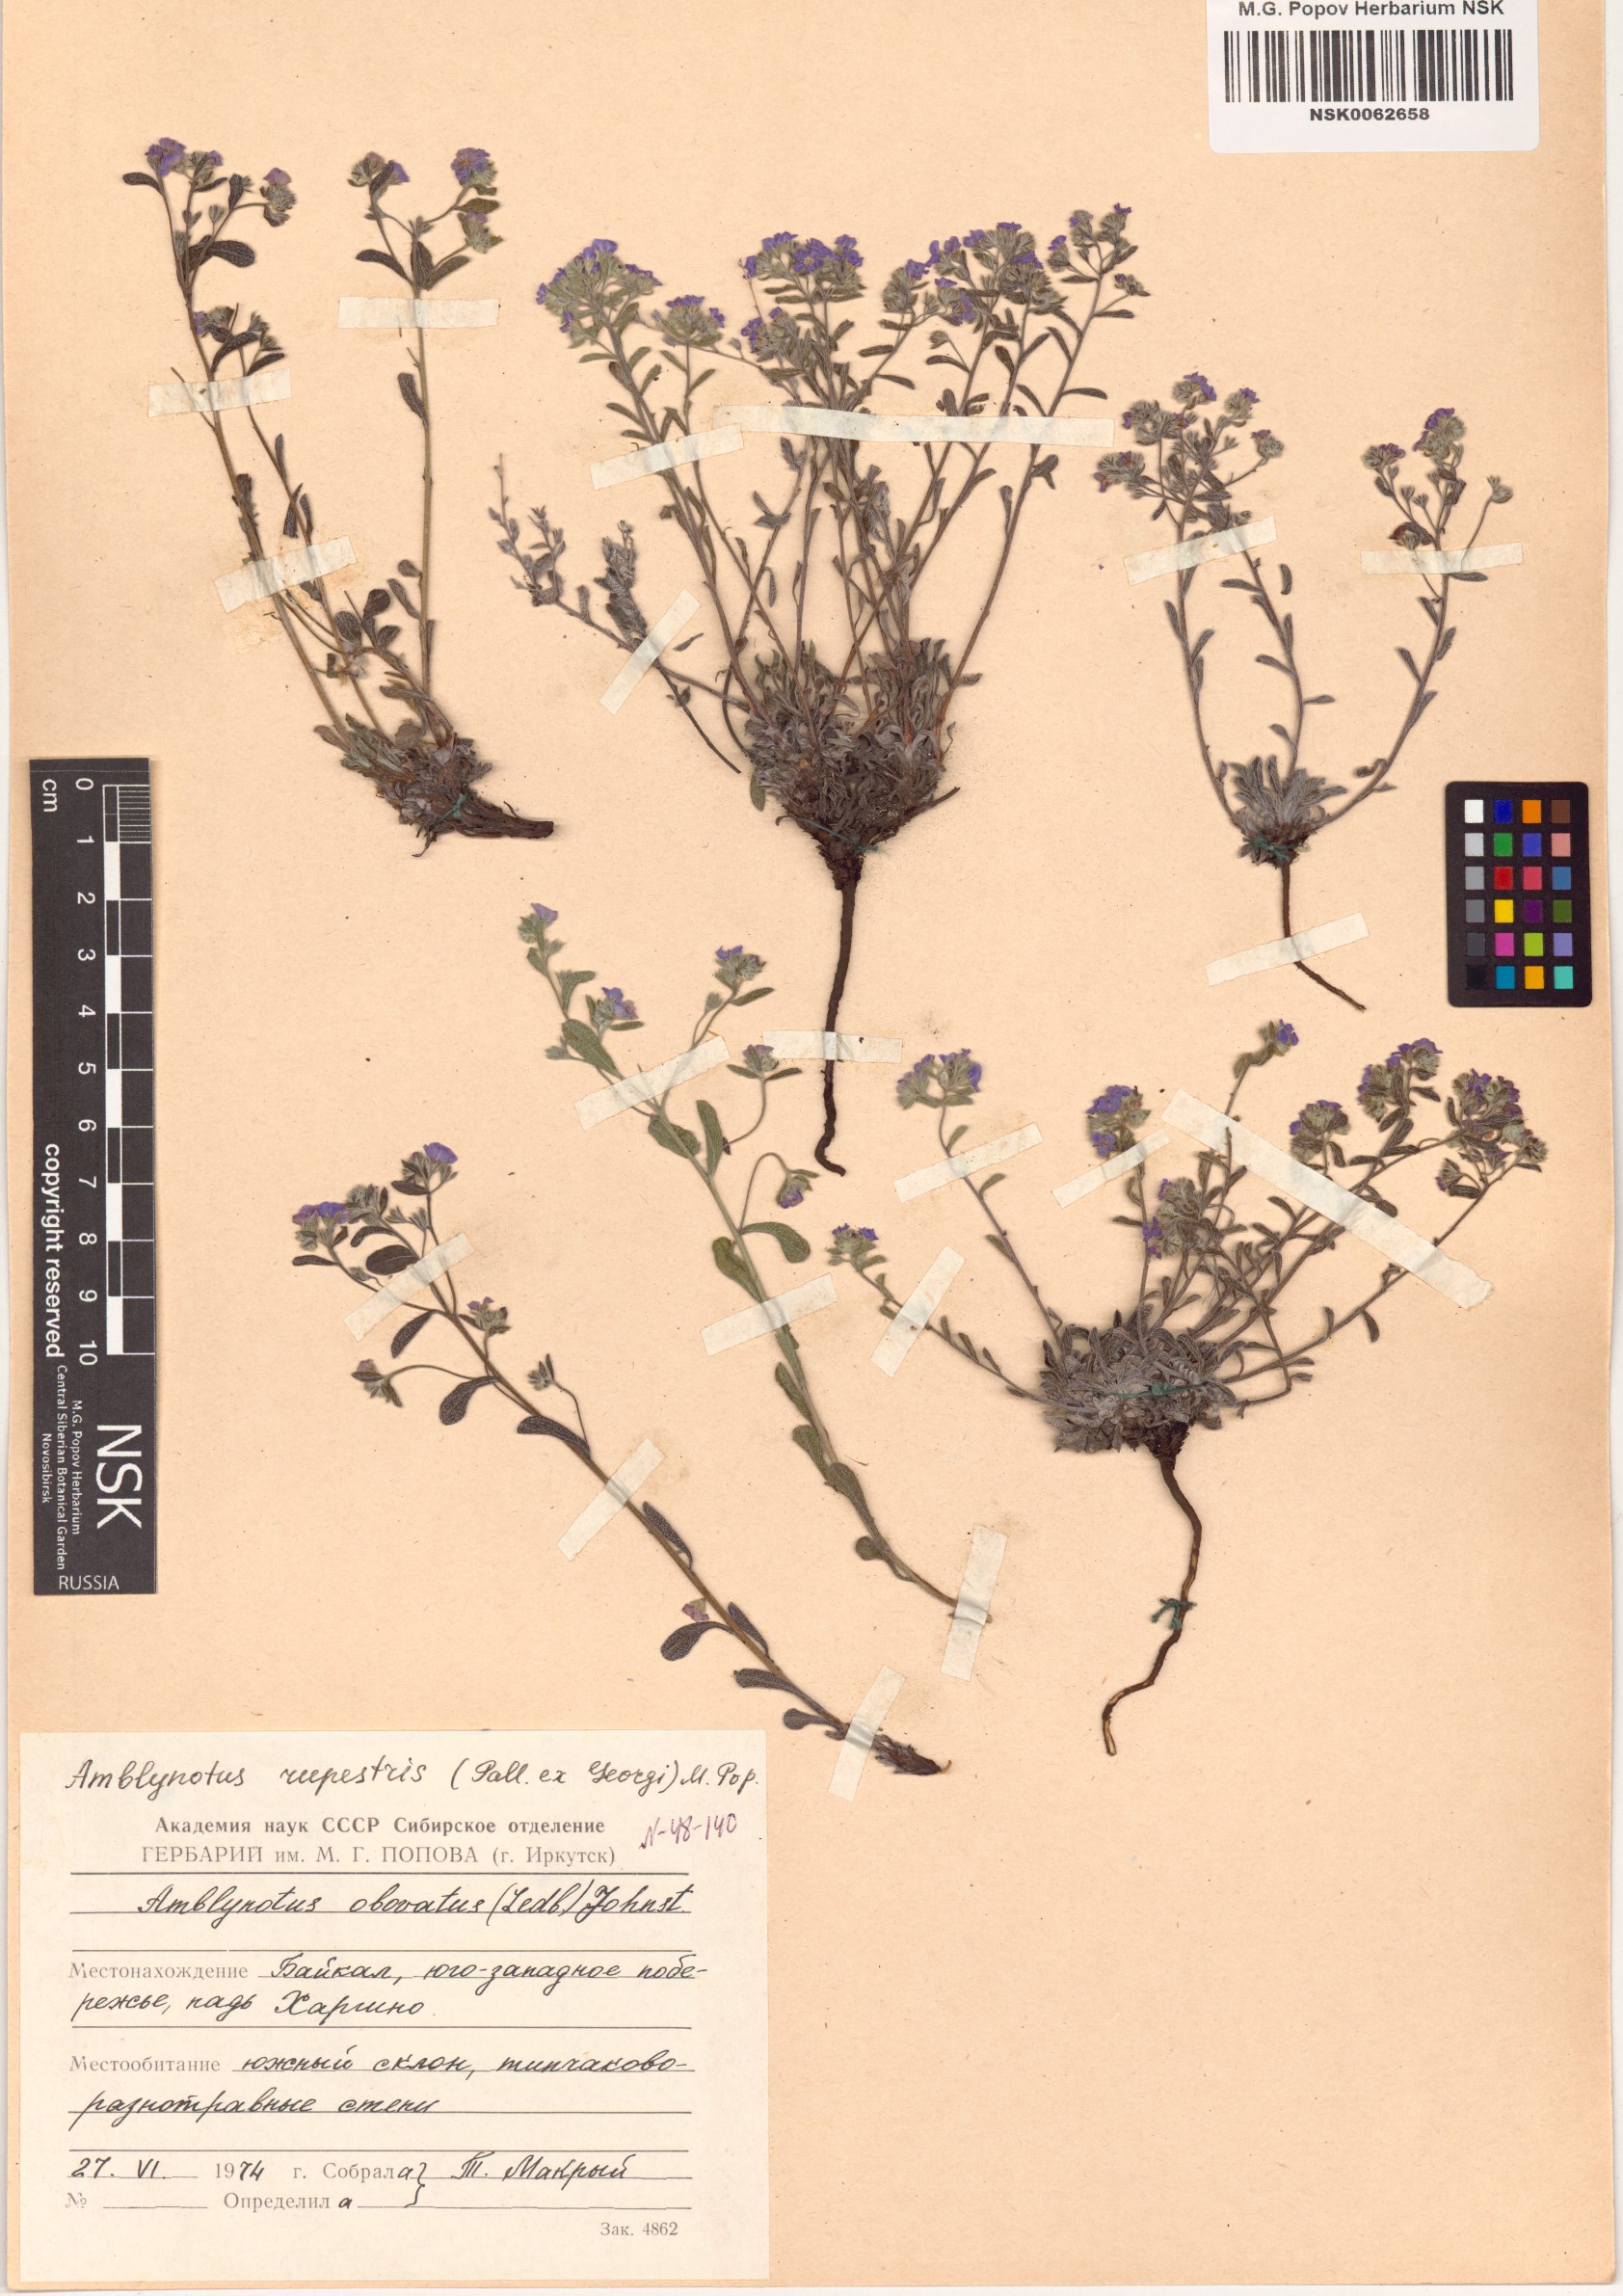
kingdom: Plantae
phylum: Tracheophyta
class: Magnoliopsida
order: Boraginales
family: Boraginaceae
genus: Eritrichium
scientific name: Eritrichium rupestre
